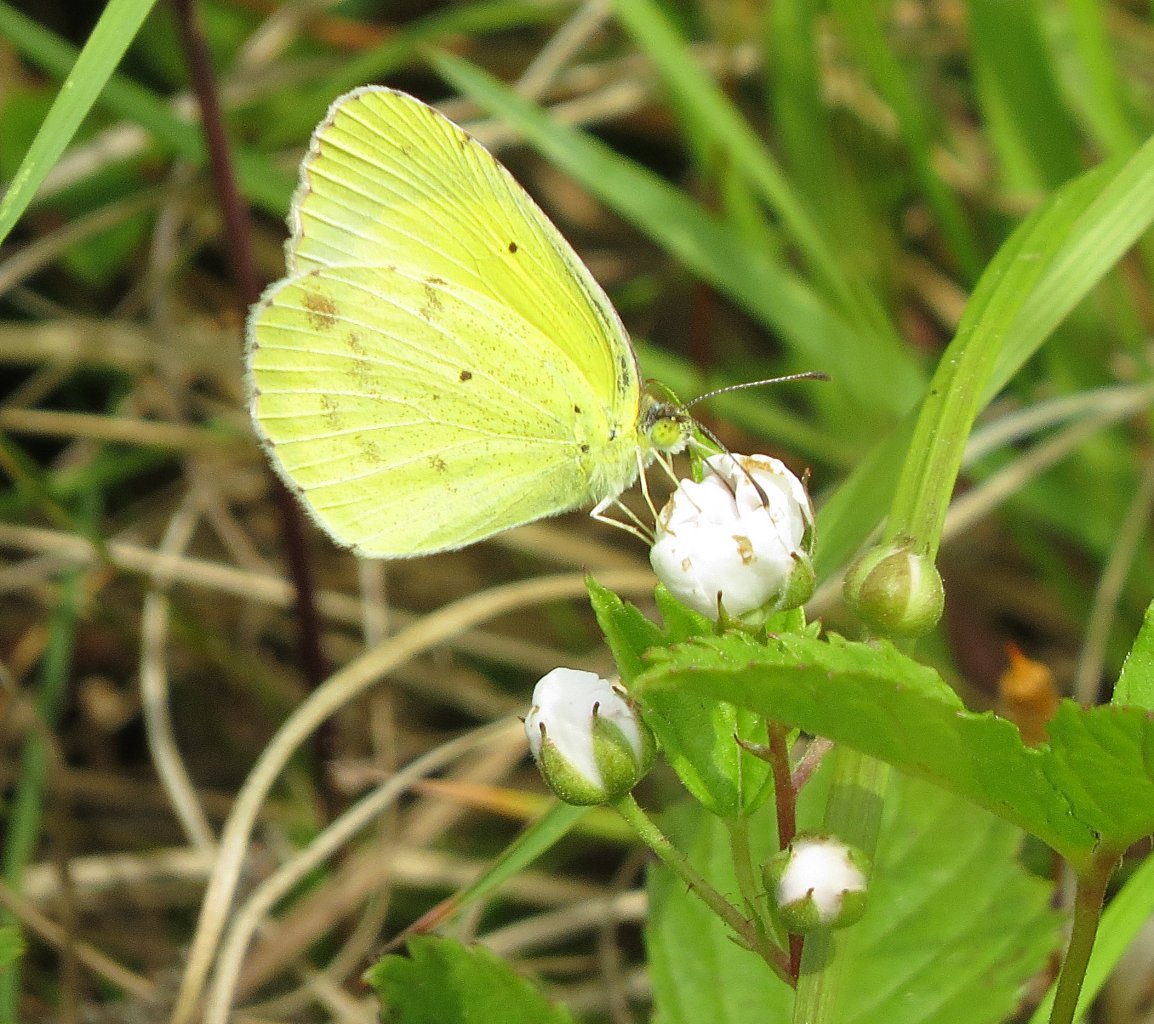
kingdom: Animalia
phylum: Arthropoda
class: Insecta
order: Lepidoptera
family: Pieridae
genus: Pyrisitia
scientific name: Pyrisitia lisa
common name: Little Yellow
